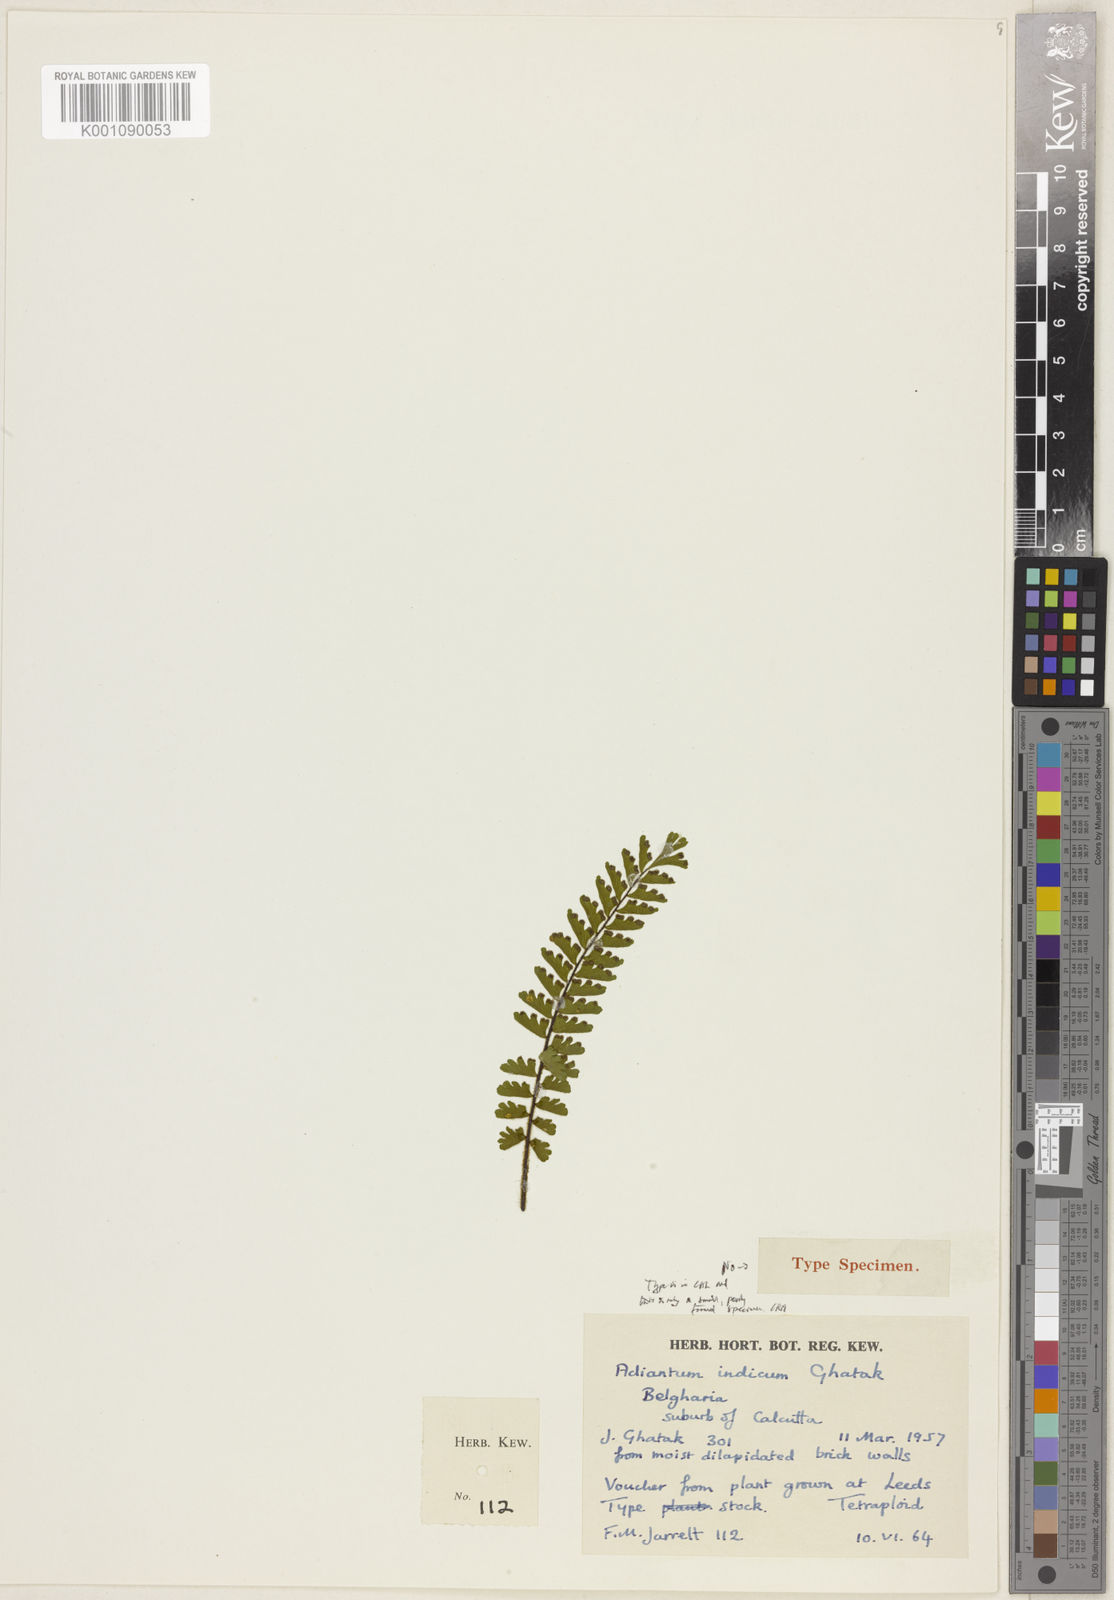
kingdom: Plantae
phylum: Tracheophyta
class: Polypodiopsida
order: Polypodiales
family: Pteridaceae
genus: Adiantum
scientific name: Adiantum incisum
